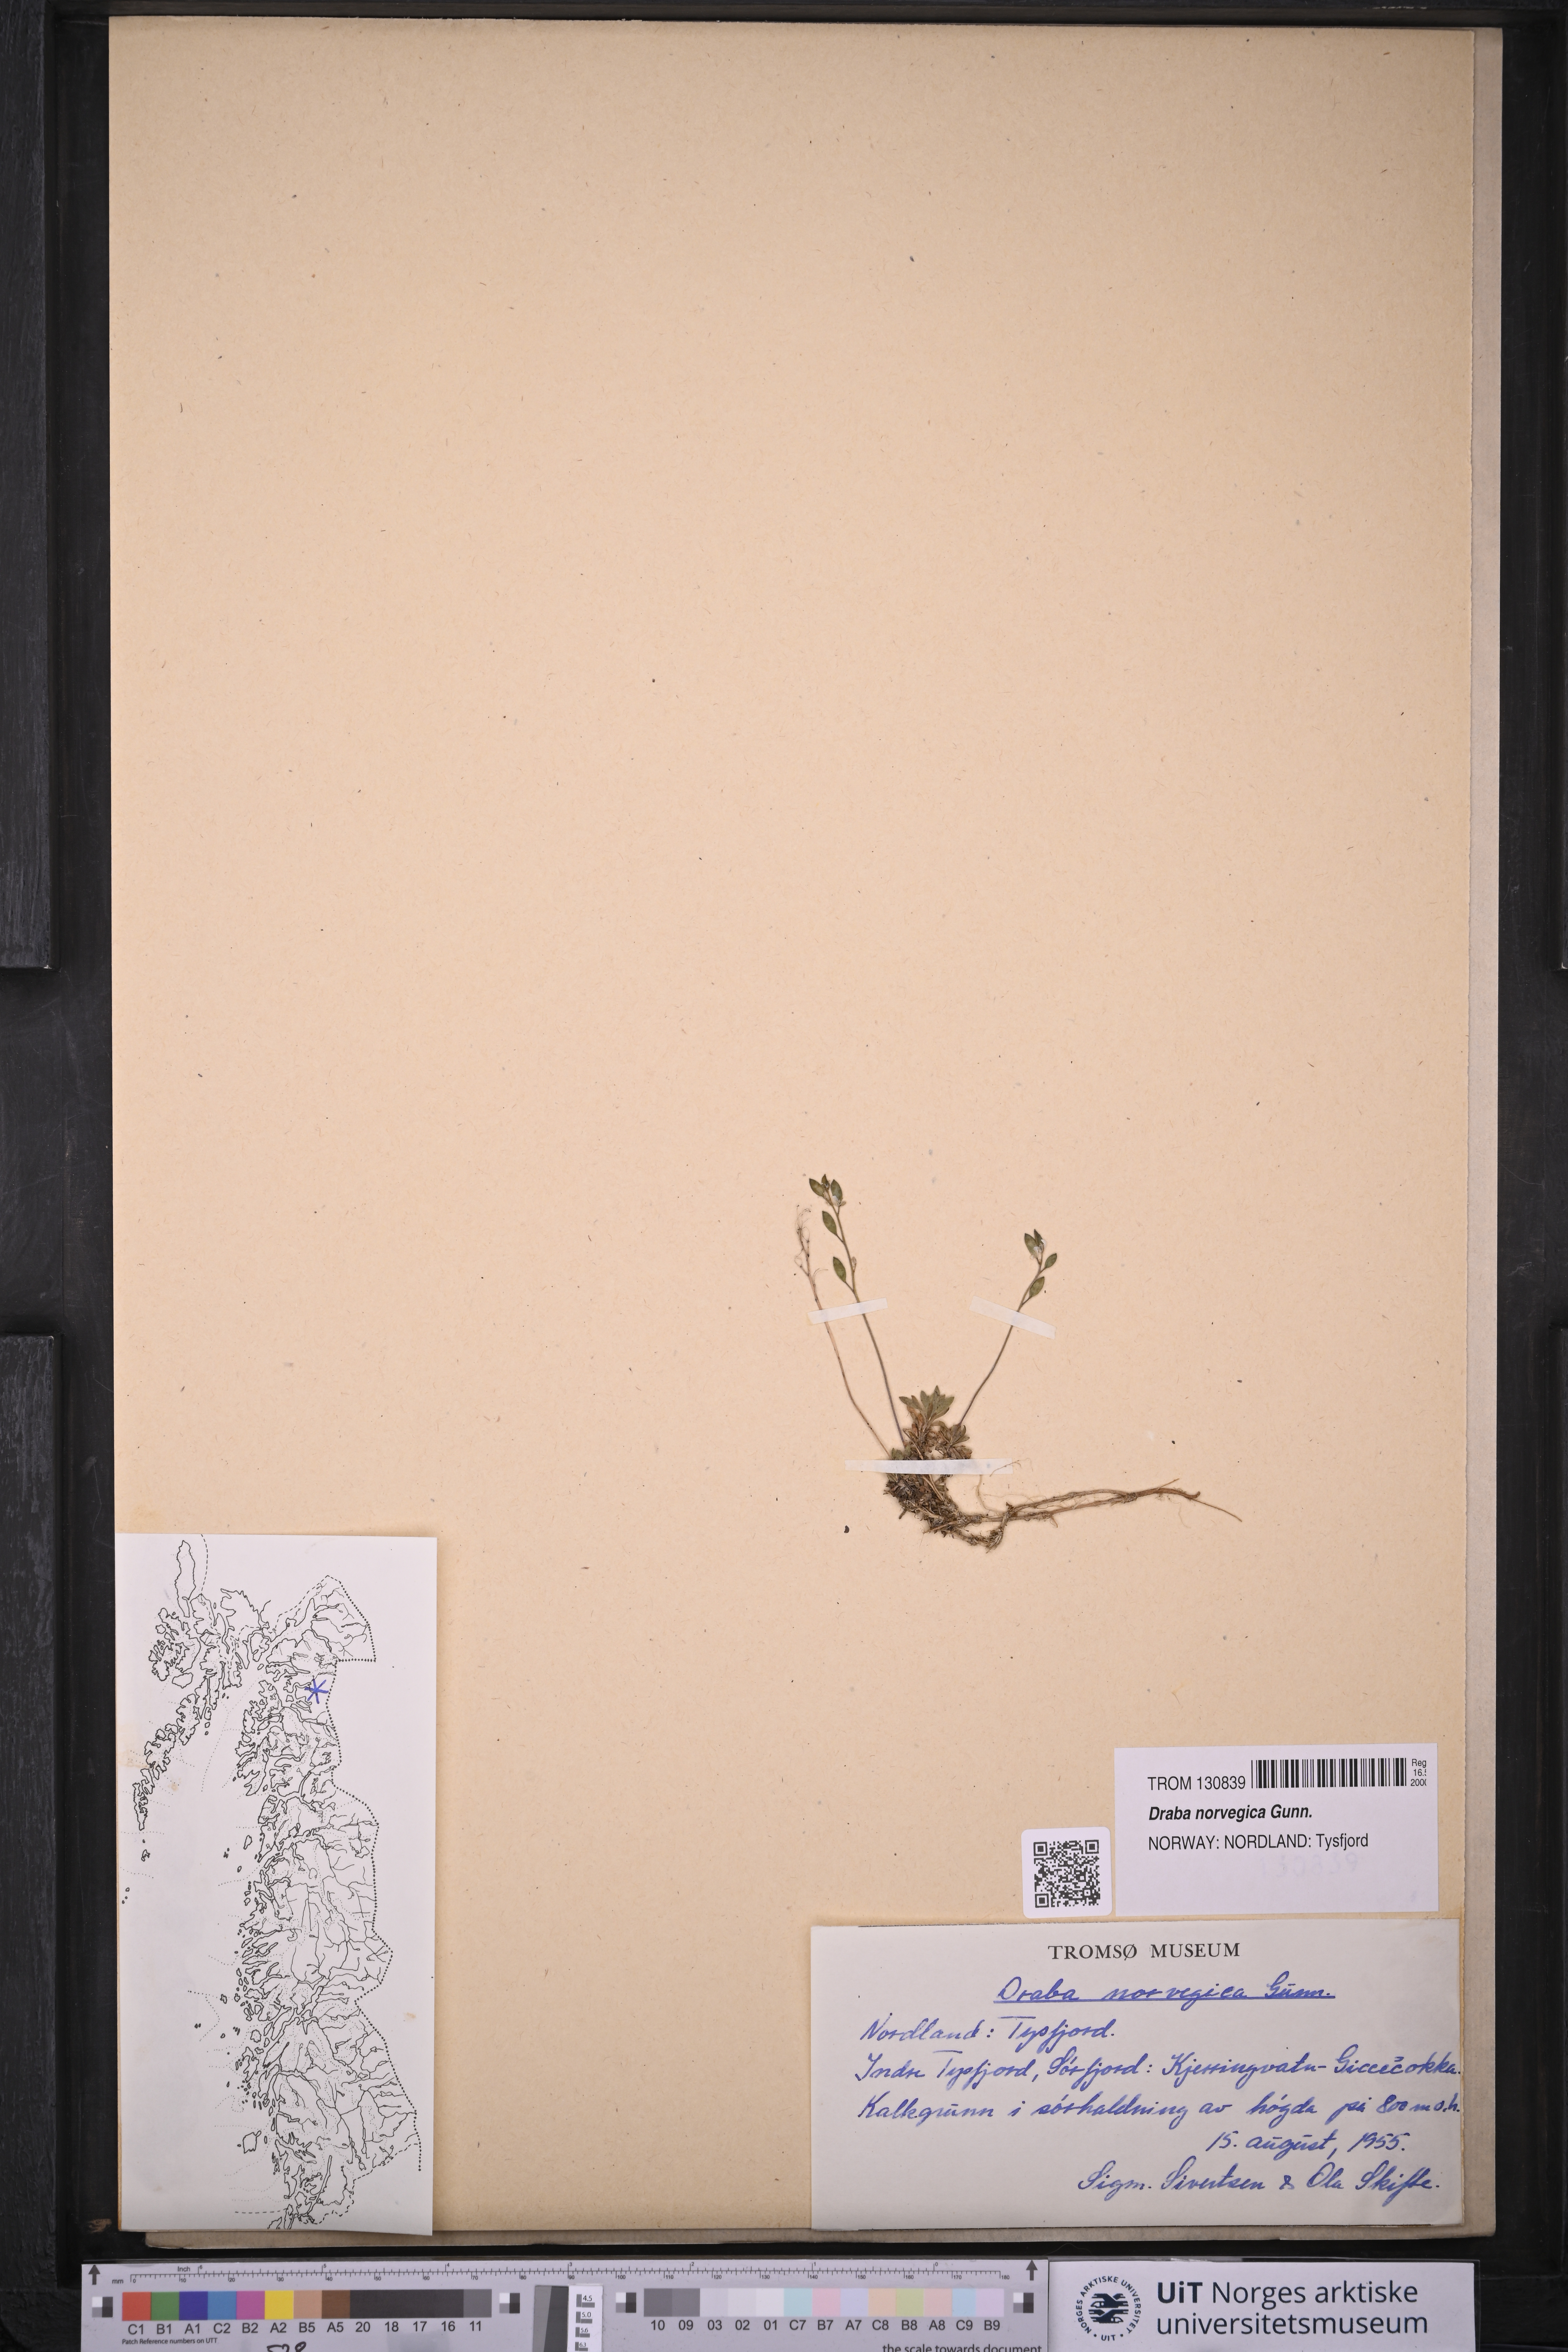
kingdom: Plantae
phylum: Tracheophyta
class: Magnoliopsida
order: Brassicales
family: Brassicaceae
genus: Draba
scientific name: Draba norvegica
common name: Rock whitlowgrass
